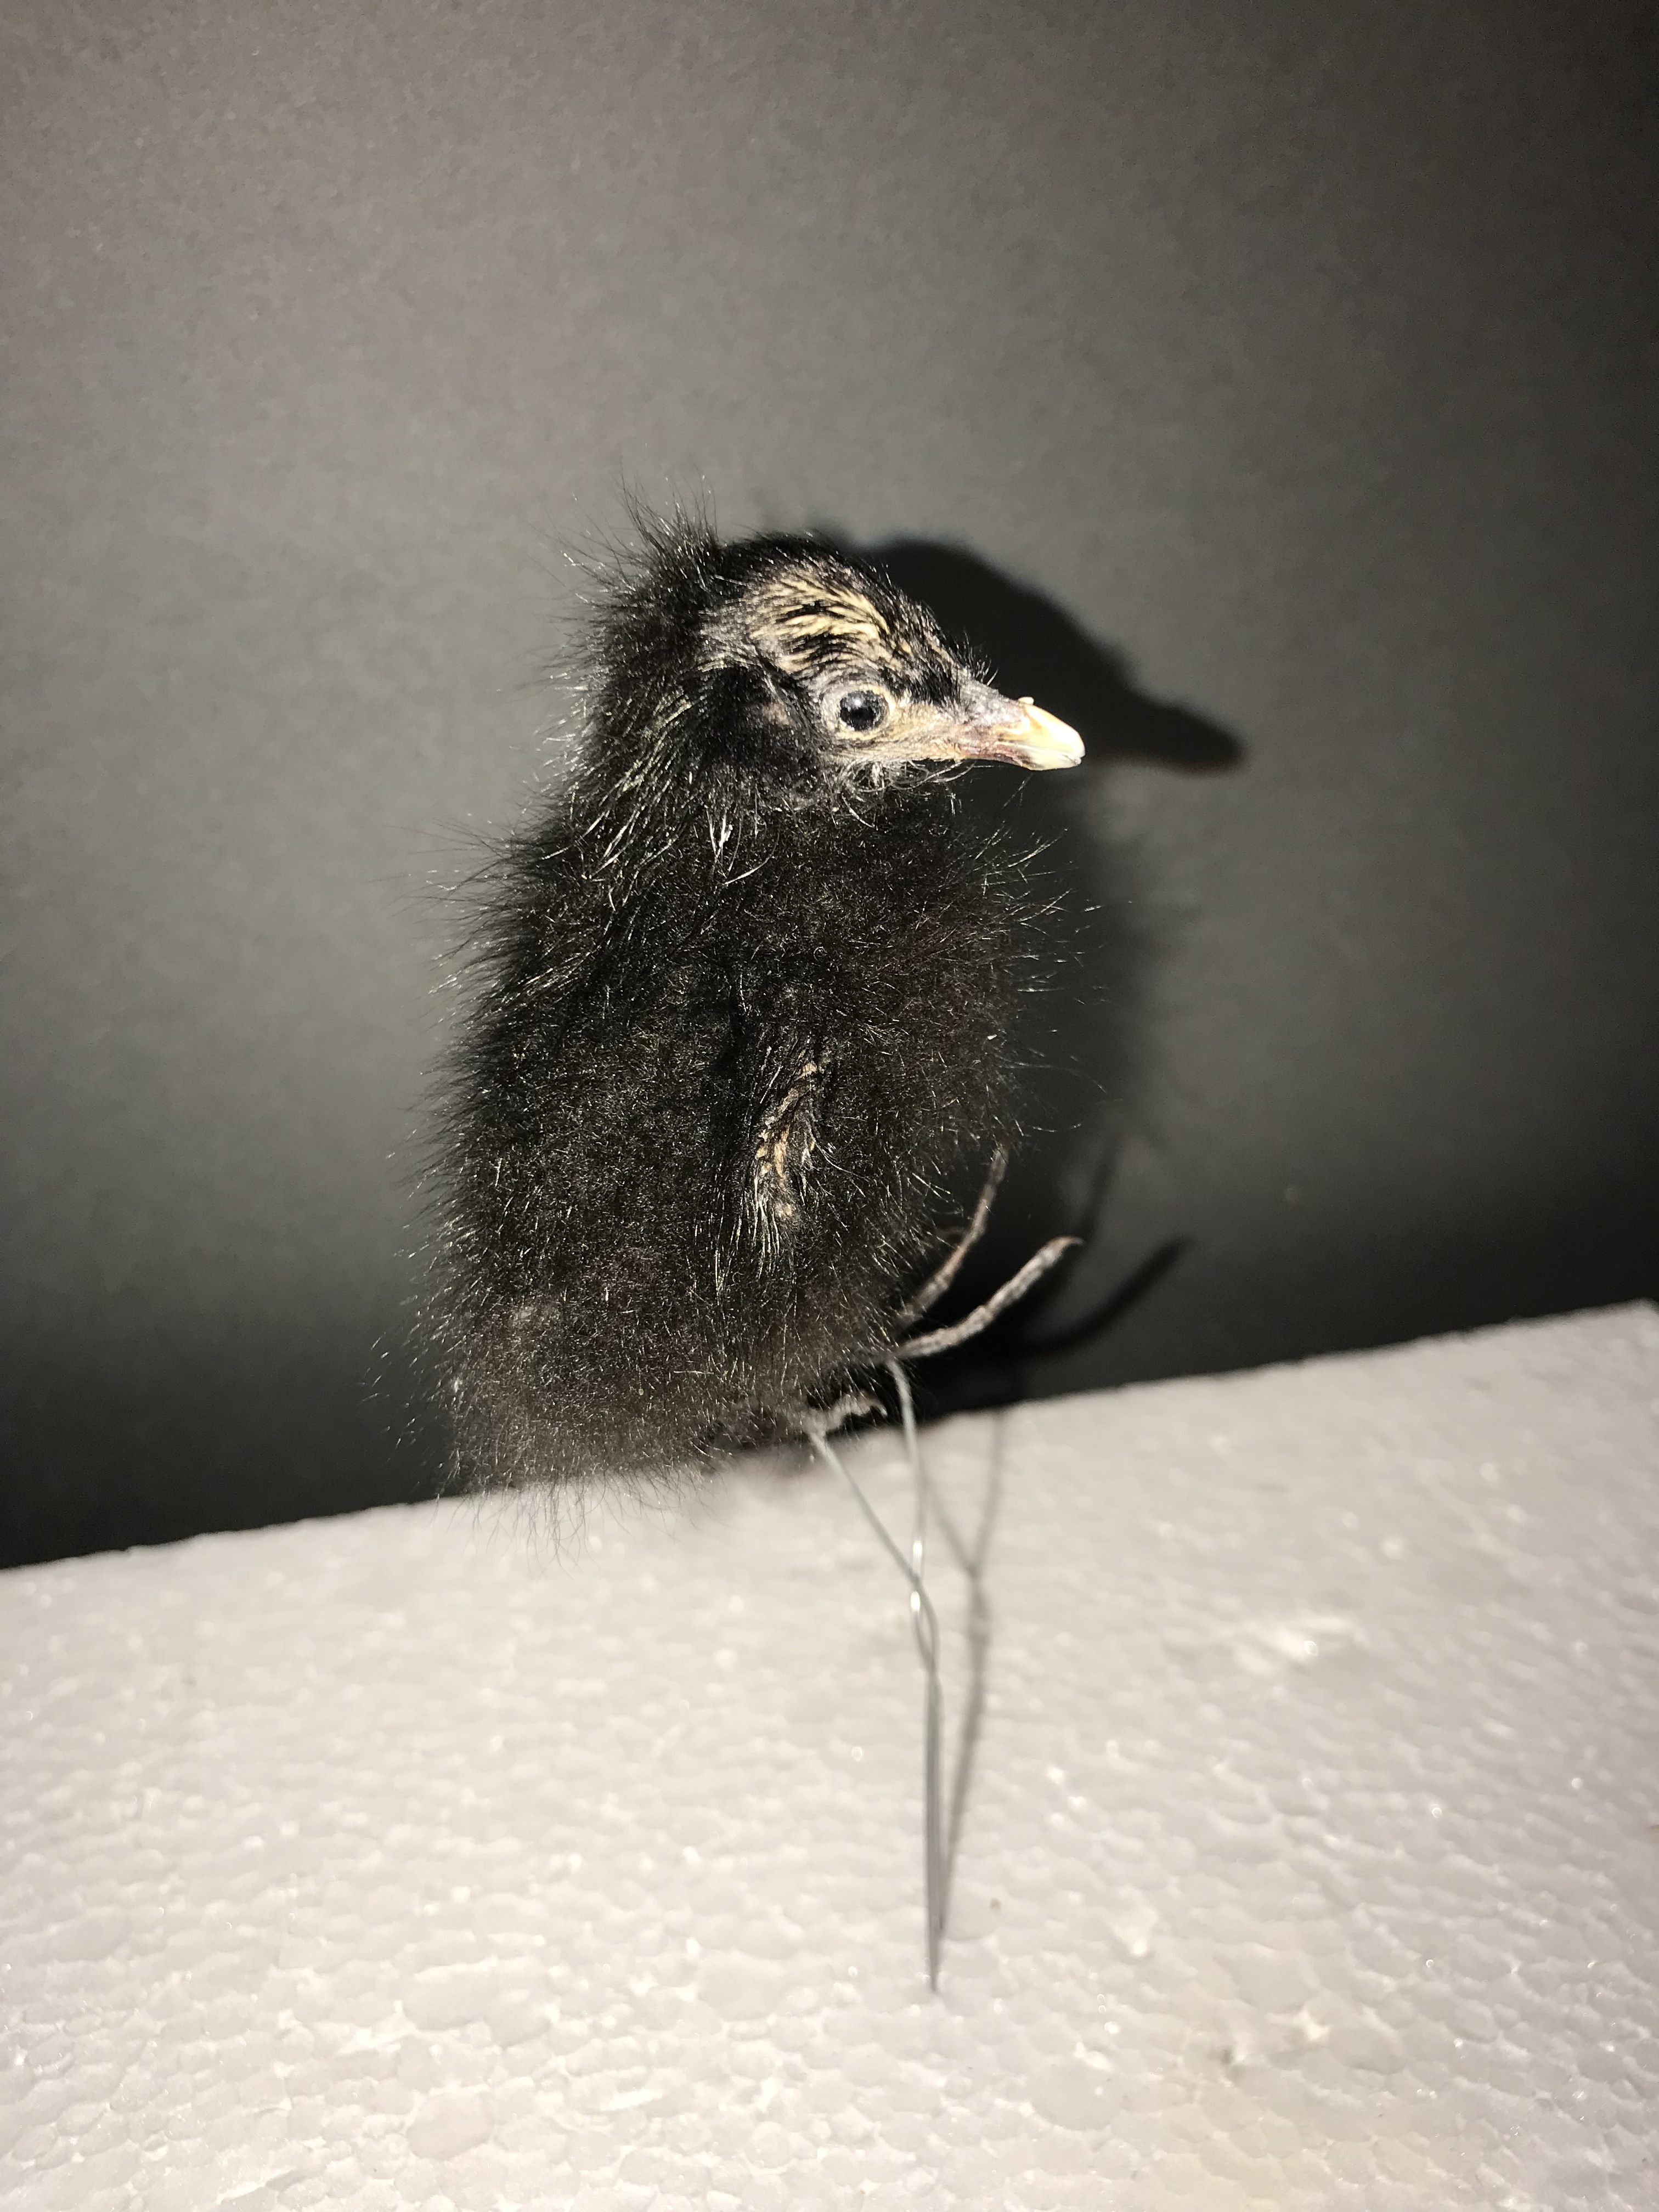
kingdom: Animalia
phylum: Chordata
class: Aves
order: Gruiformes
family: Rallidae
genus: Rallus
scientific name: Rallus aquaticus
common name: Water rail
